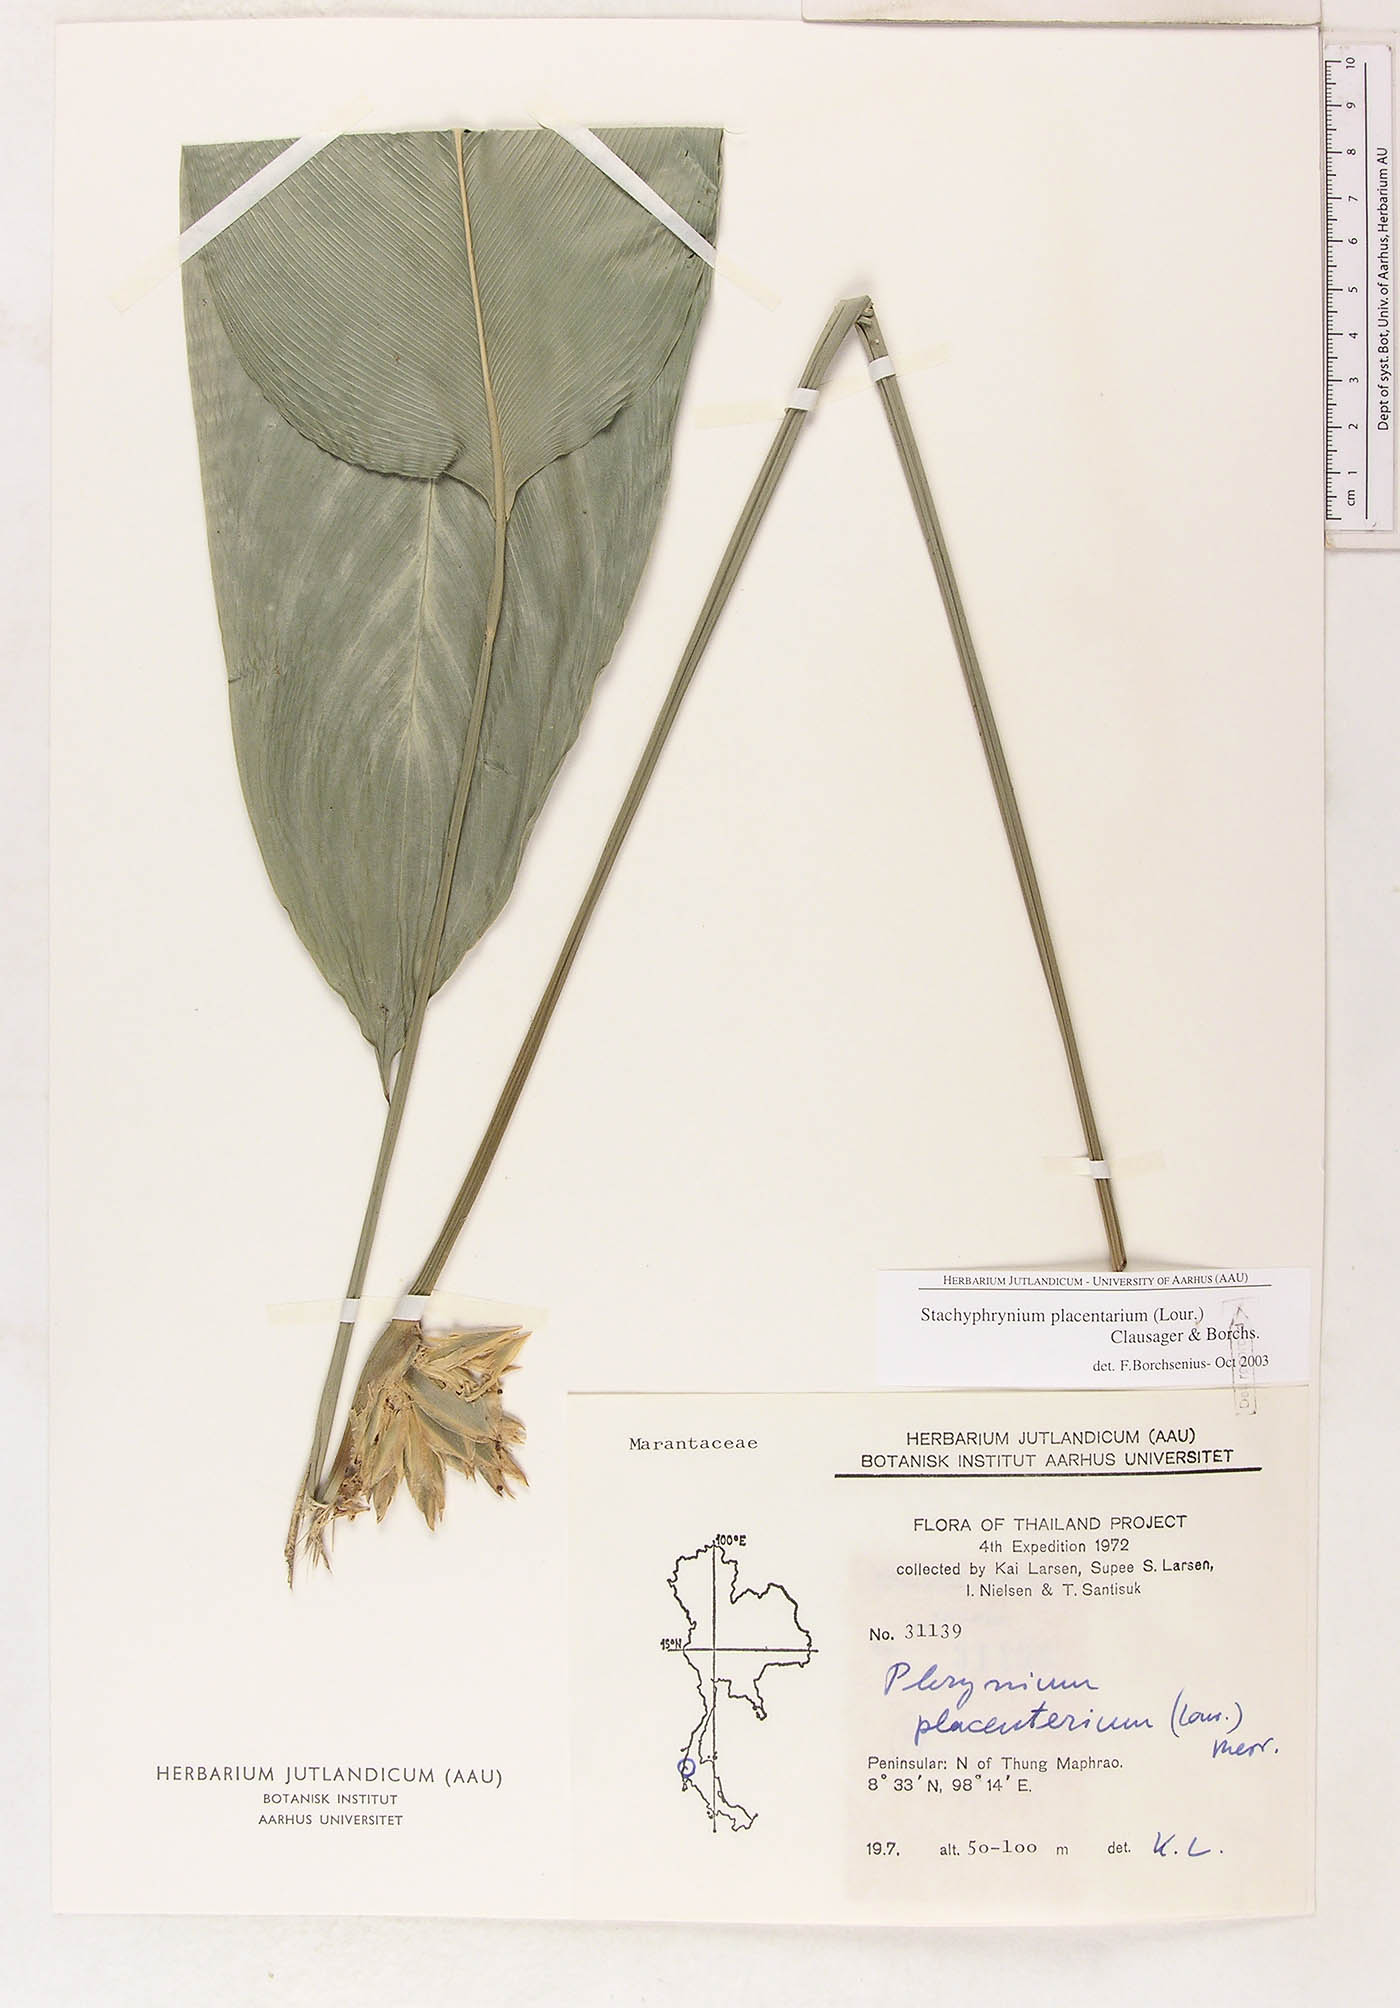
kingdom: Plantae
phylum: Tracheophyta
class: Liliopsida
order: Zingiberales
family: Marantaceae
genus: Stachyphrynium
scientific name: Stachyphrynium placentarium
